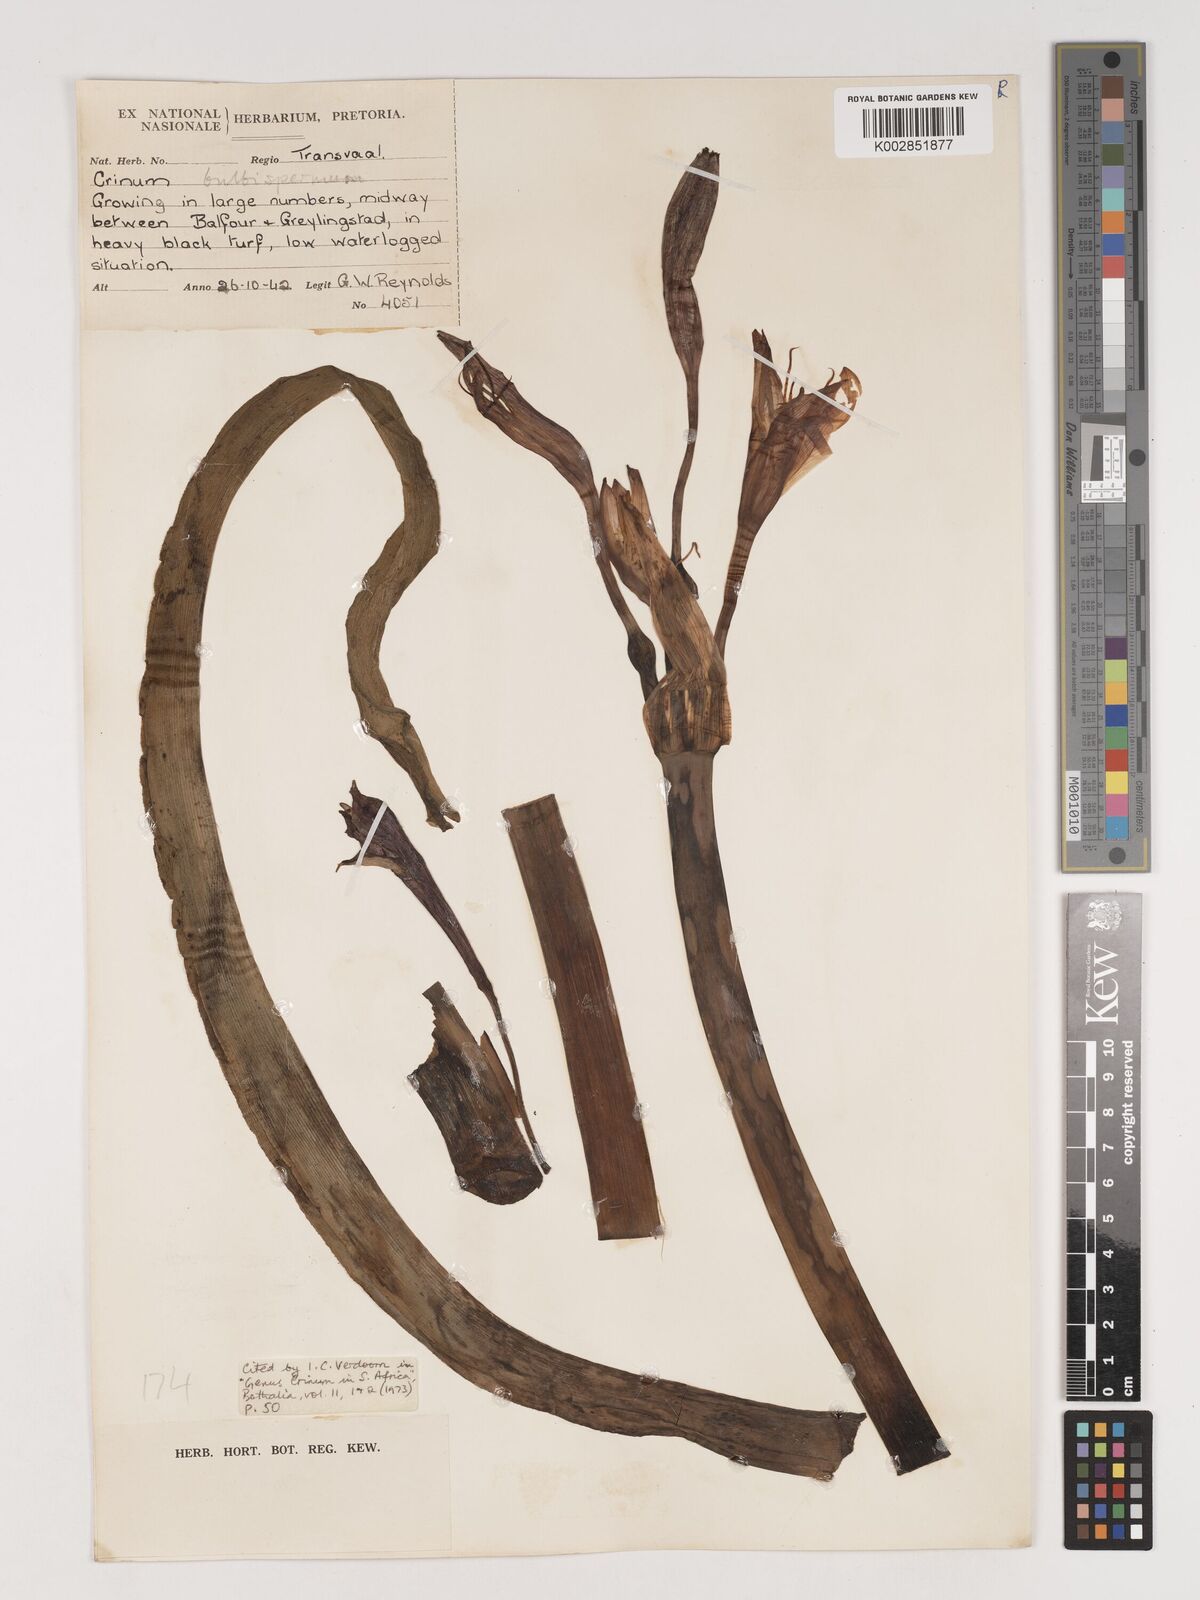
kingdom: Plantae
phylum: Tracheophyta
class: Liliopsida
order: Asparagales
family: Amaryllidaceae
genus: Crinum
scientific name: Crinum bulbispermum
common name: Hardy swamplily
